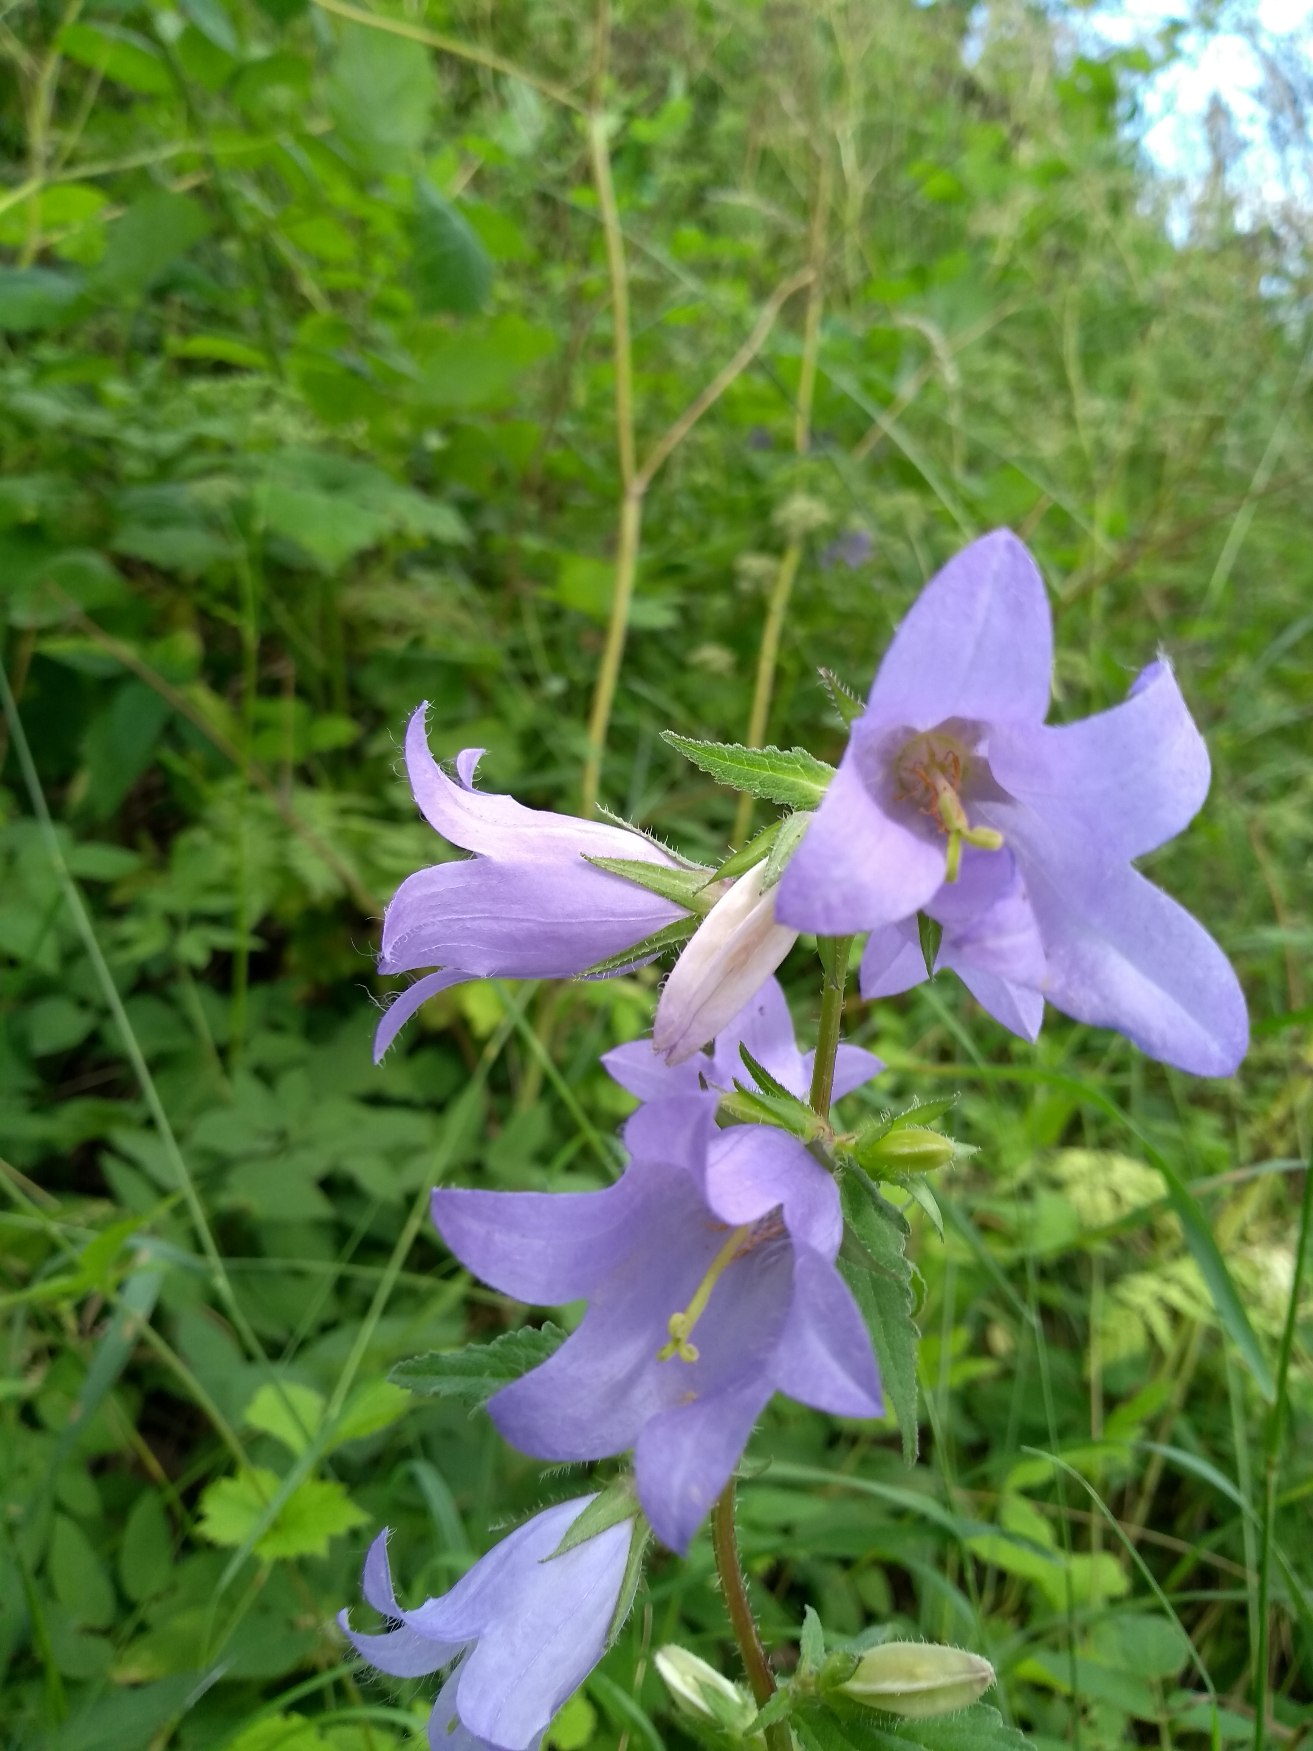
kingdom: Plantae
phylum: Tracheophyta
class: Magnoliopsida
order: Asterales
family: Campanulaceae
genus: Campanula
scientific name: Campanula trachelium
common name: Nælde-klokke
